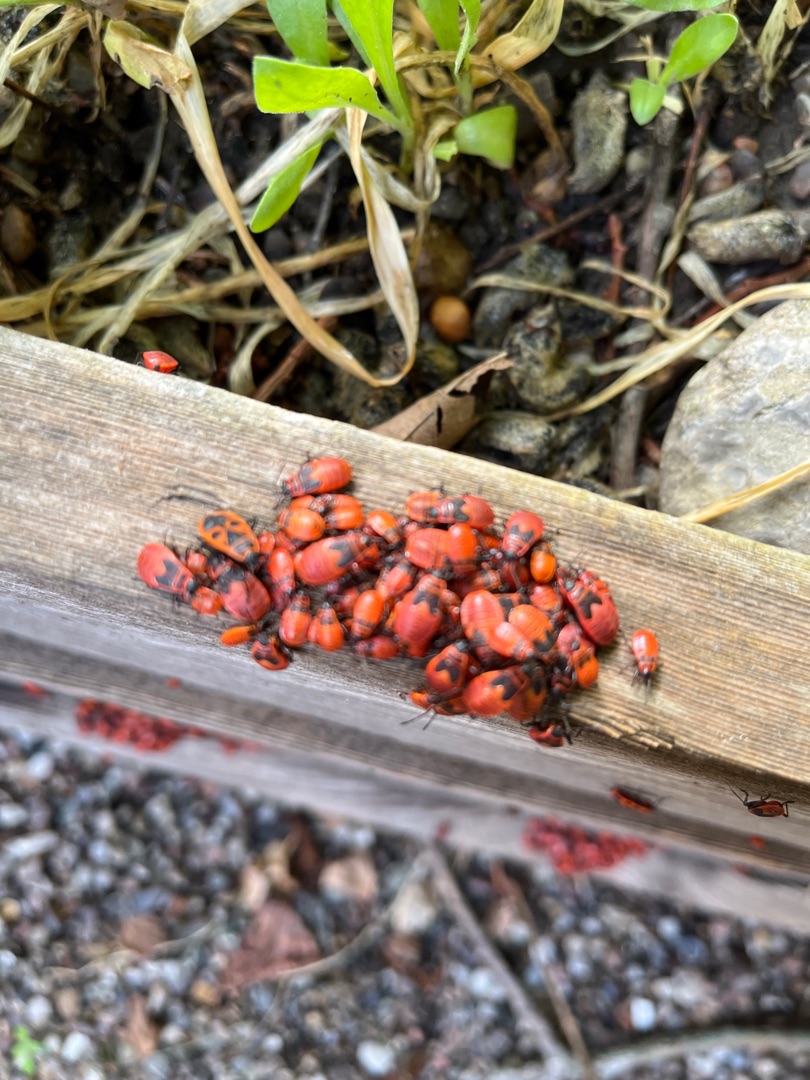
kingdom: Animalia
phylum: Arthropoda
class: Insecta
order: Hemiptera
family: Pyrrhocoridae
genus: Pyrrhocoris
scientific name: Pyrrhocoris apterus
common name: Ildtæge
